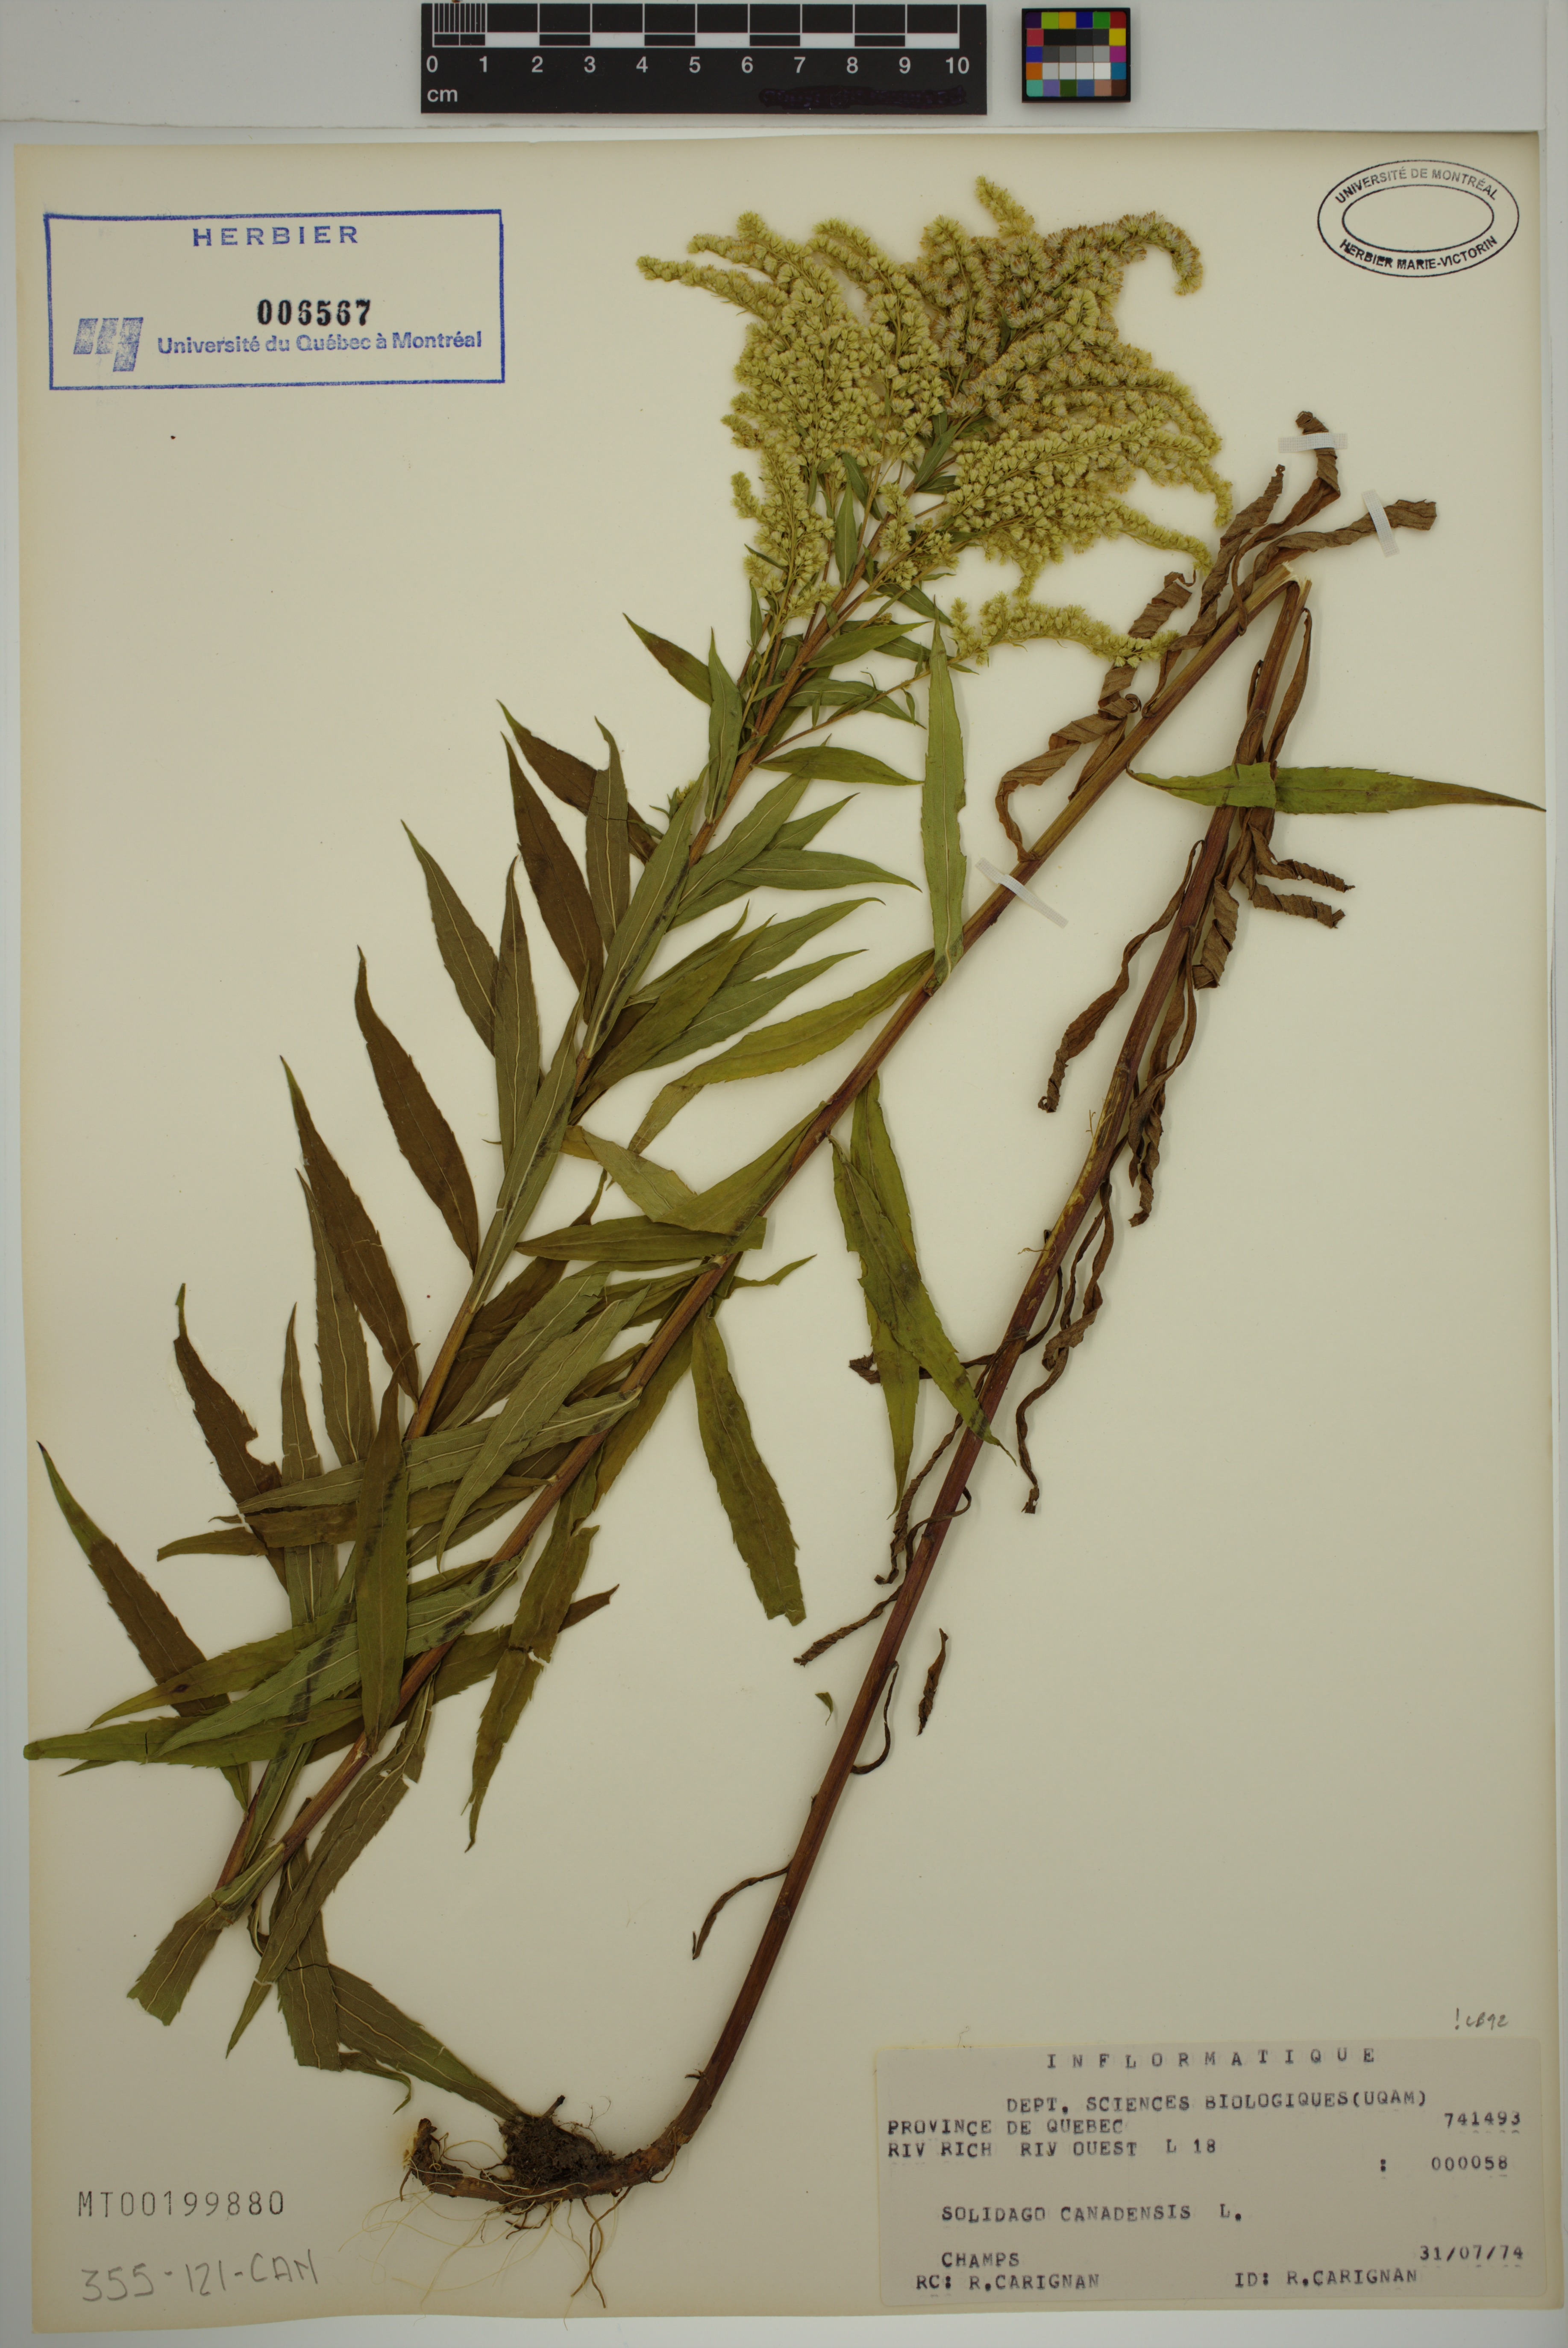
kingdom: Plantae
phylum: Tracheophyta
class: Magnoliopsida
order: Asterales
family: Asteraceae
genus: Solidago
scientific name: Solidago canadensis
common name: Canada goldenrod
